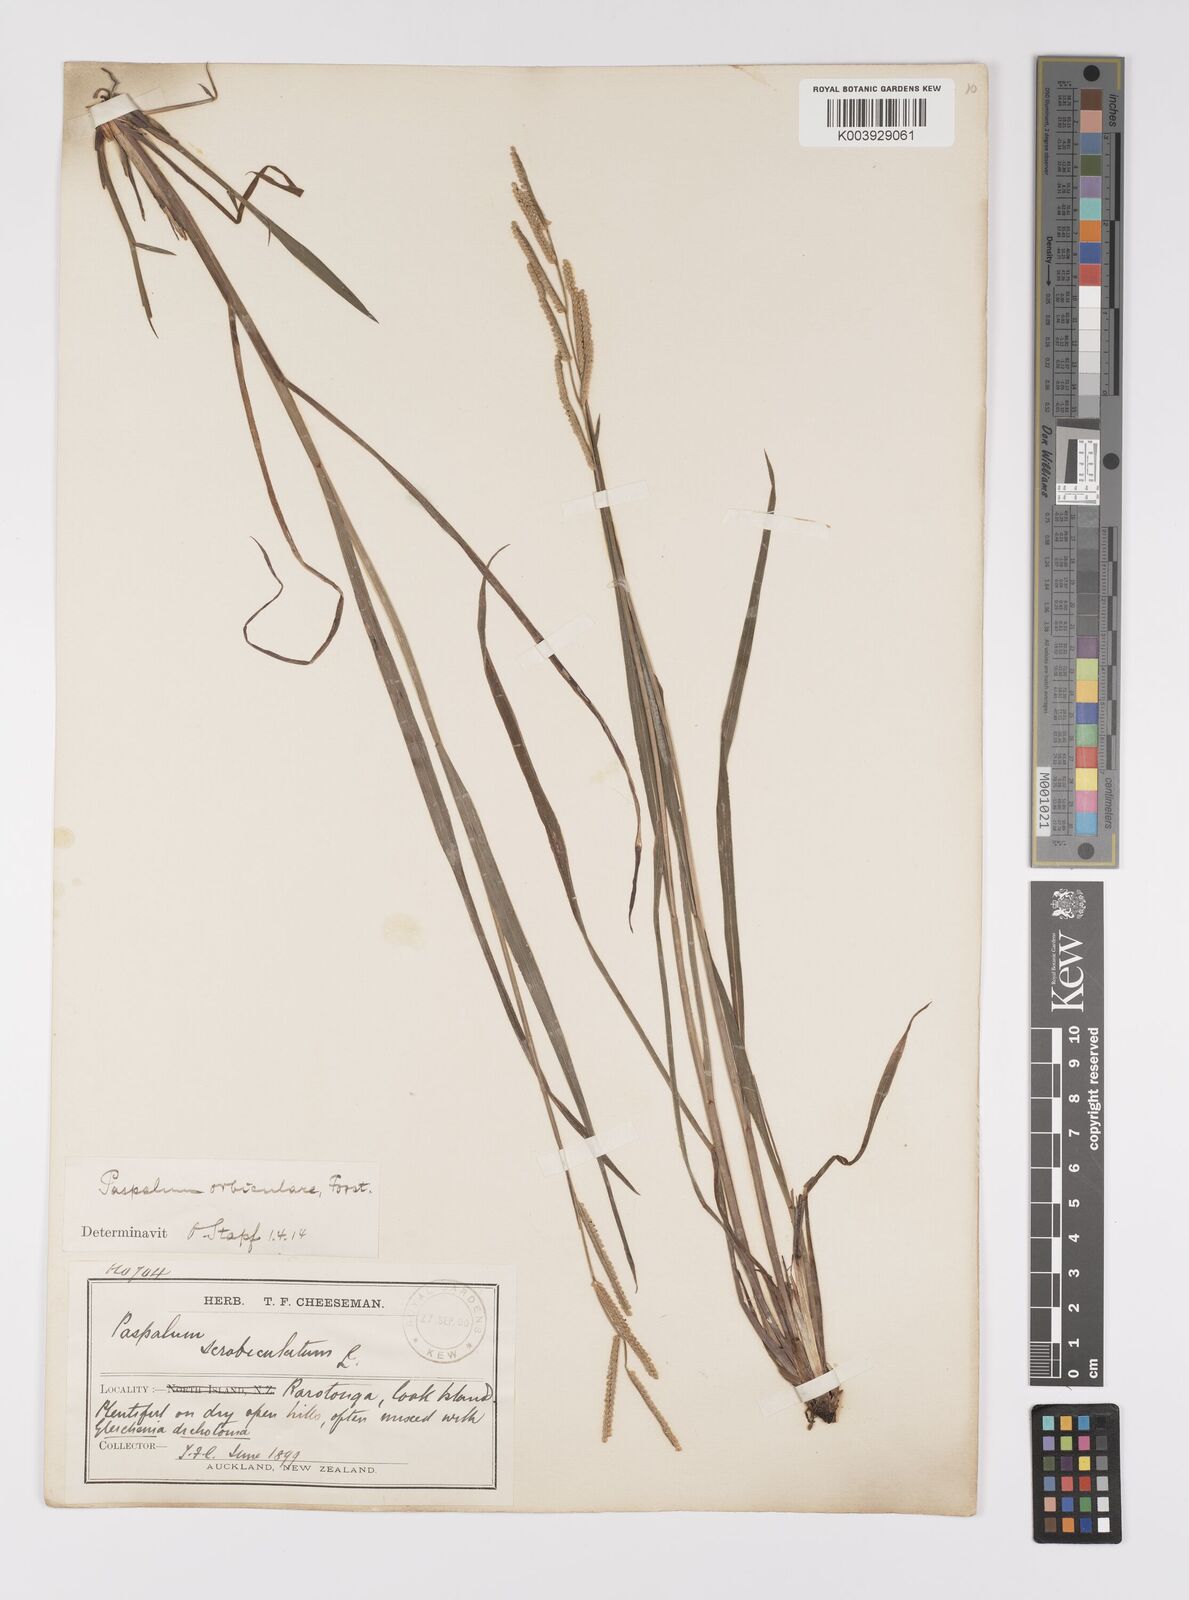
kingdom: Plantae
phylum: Tracheophyta
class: Liliopsida
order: Poales
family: Poaceae
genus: Paspalum
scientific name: Paspalum scrobiculatum
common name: Kodo millet
